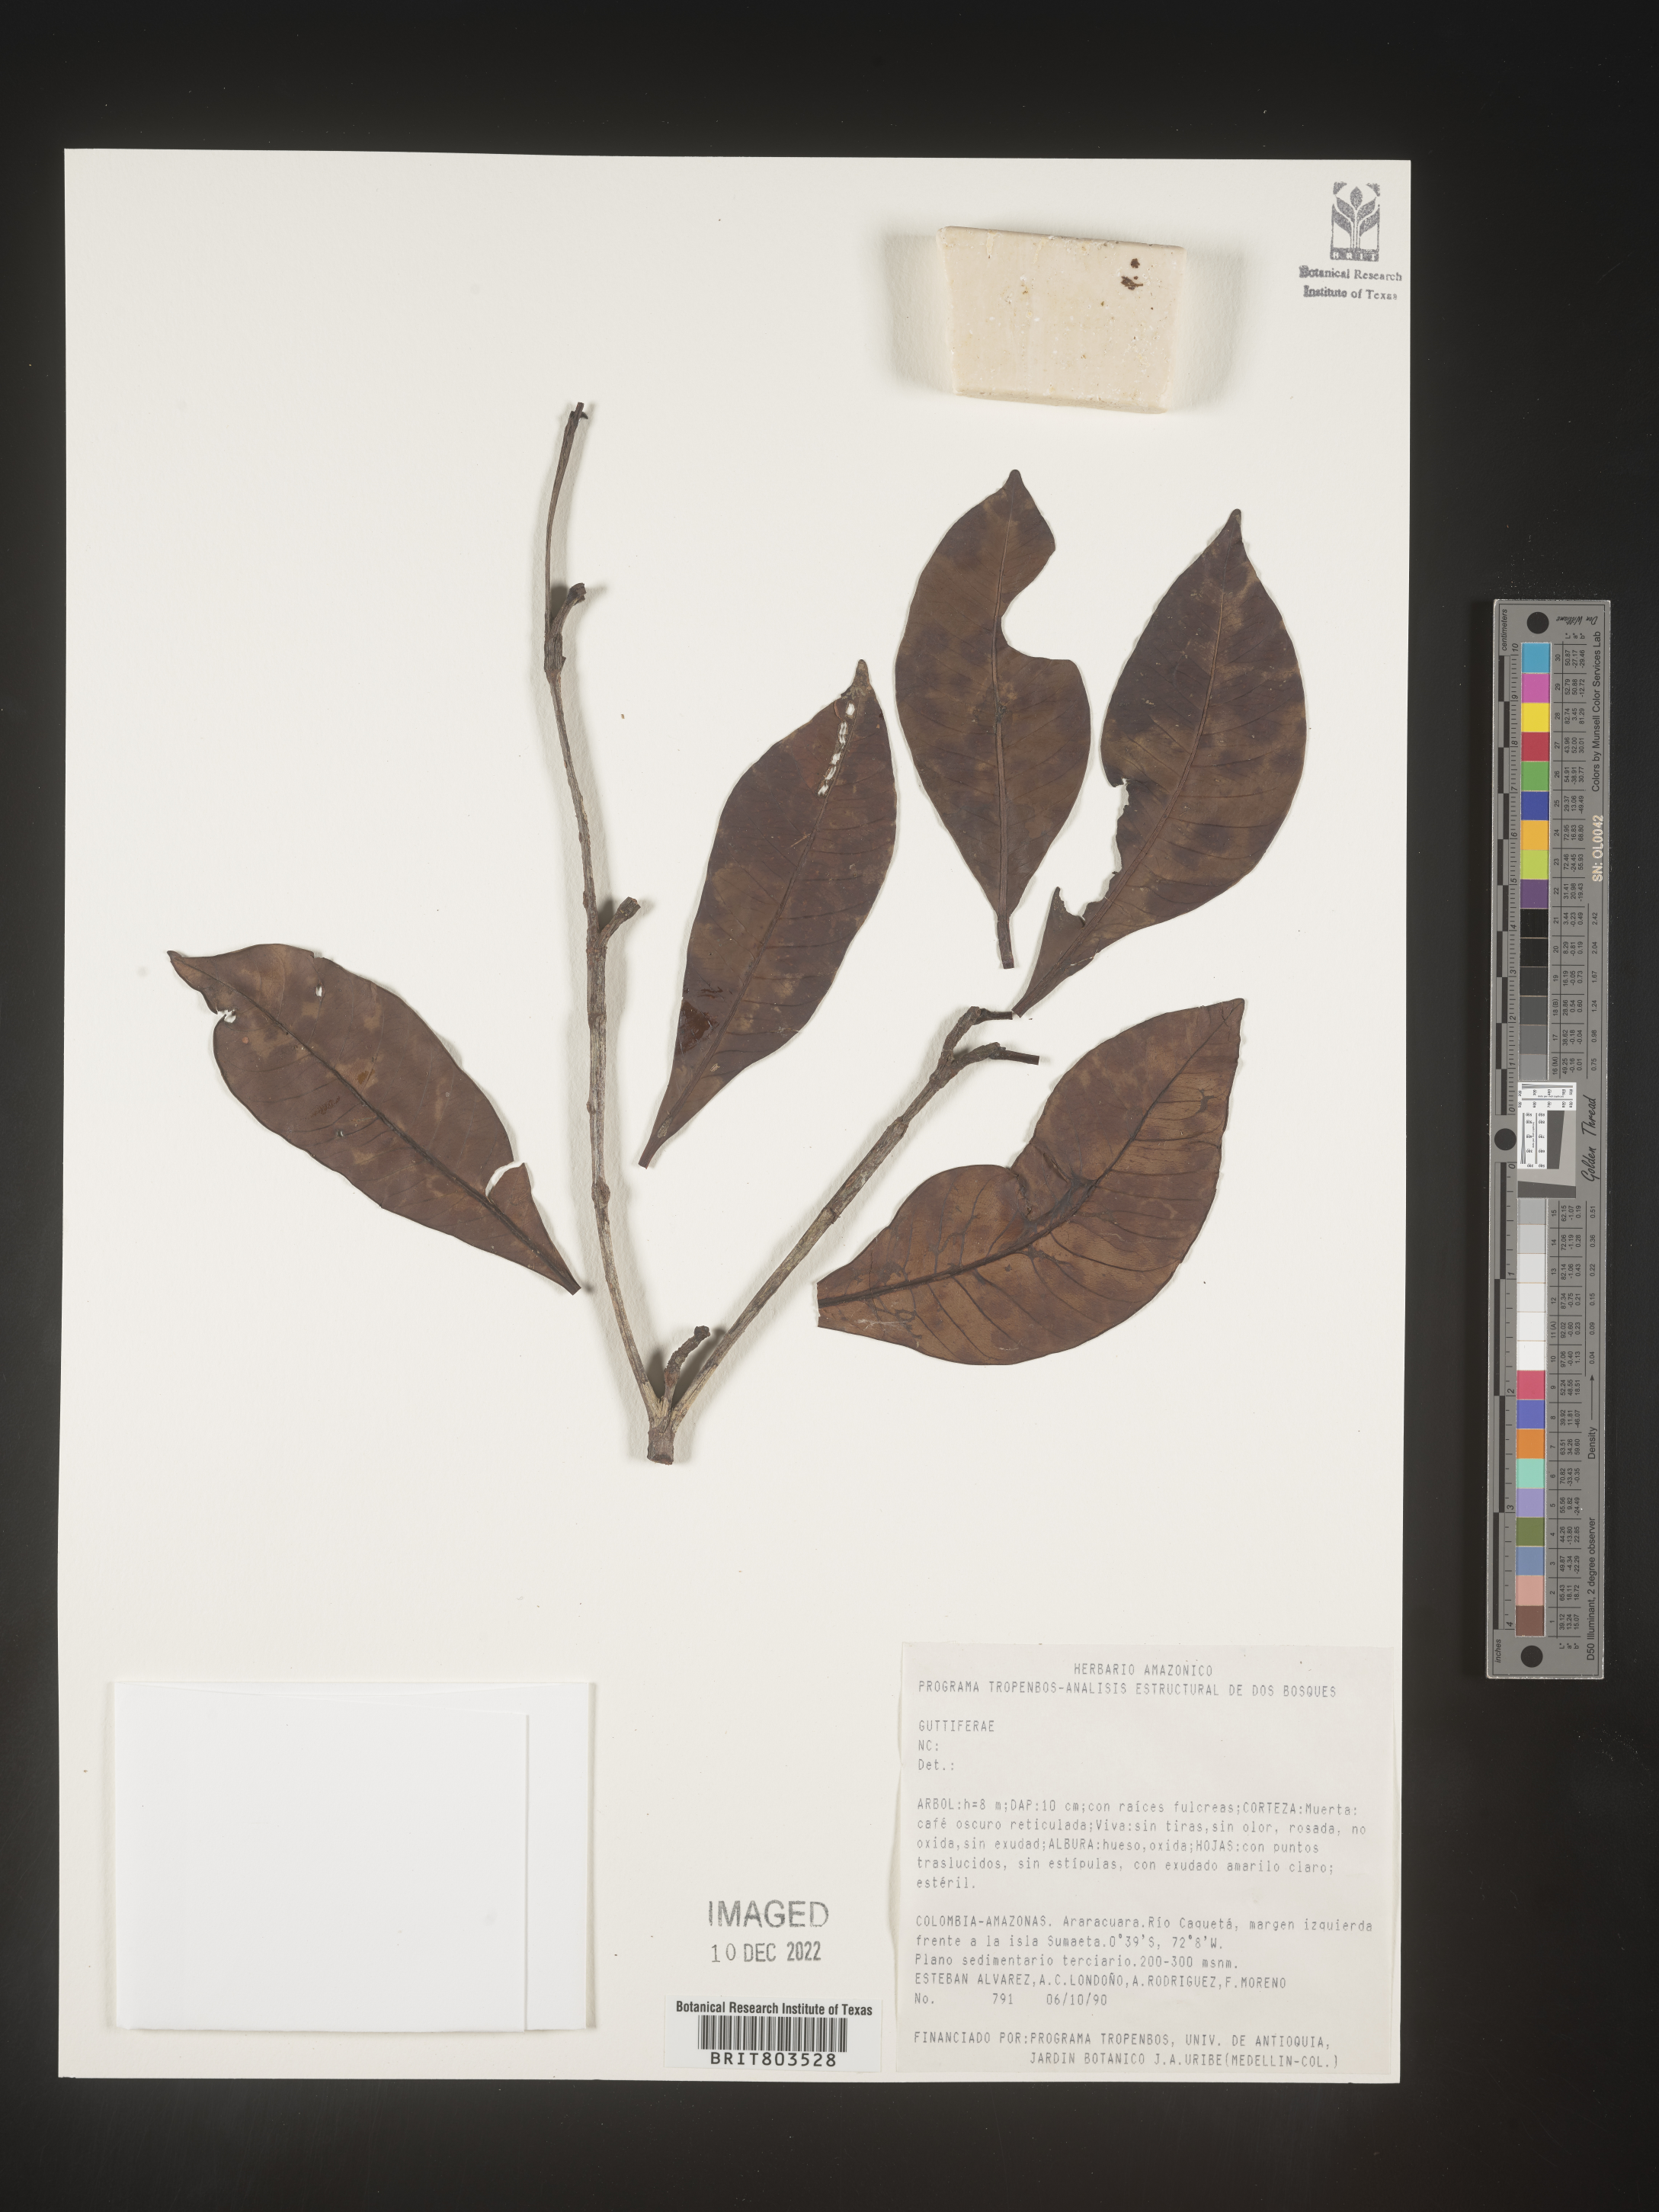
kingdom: Plantae
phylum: Tracheophyta
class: Magnoliopsida
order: Malpighiales
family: Clusiaceae
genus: Tovomita
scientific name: Tovomita
